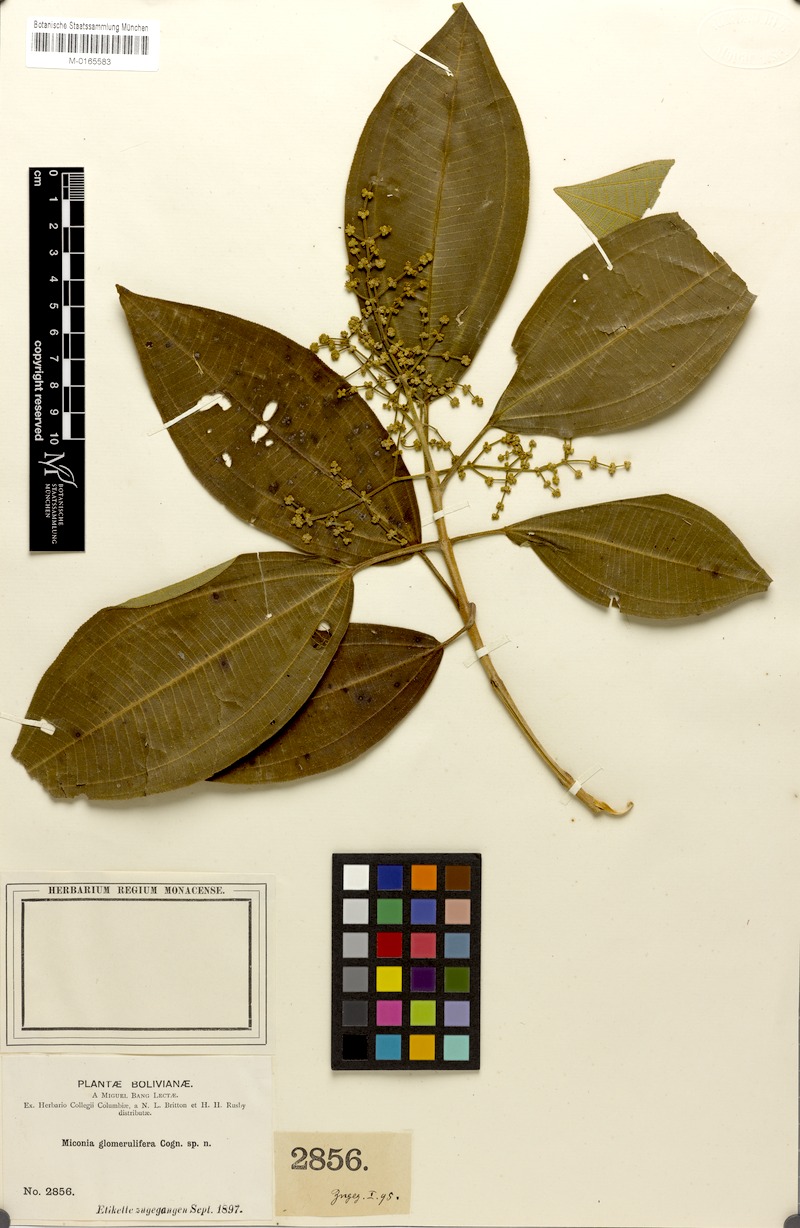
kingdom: Plantae
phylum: Tracheophyta
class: Magnoliopsida
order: Myrtales
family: Melastomataceae
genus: Miconia
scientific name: Miconia glomerulifera
